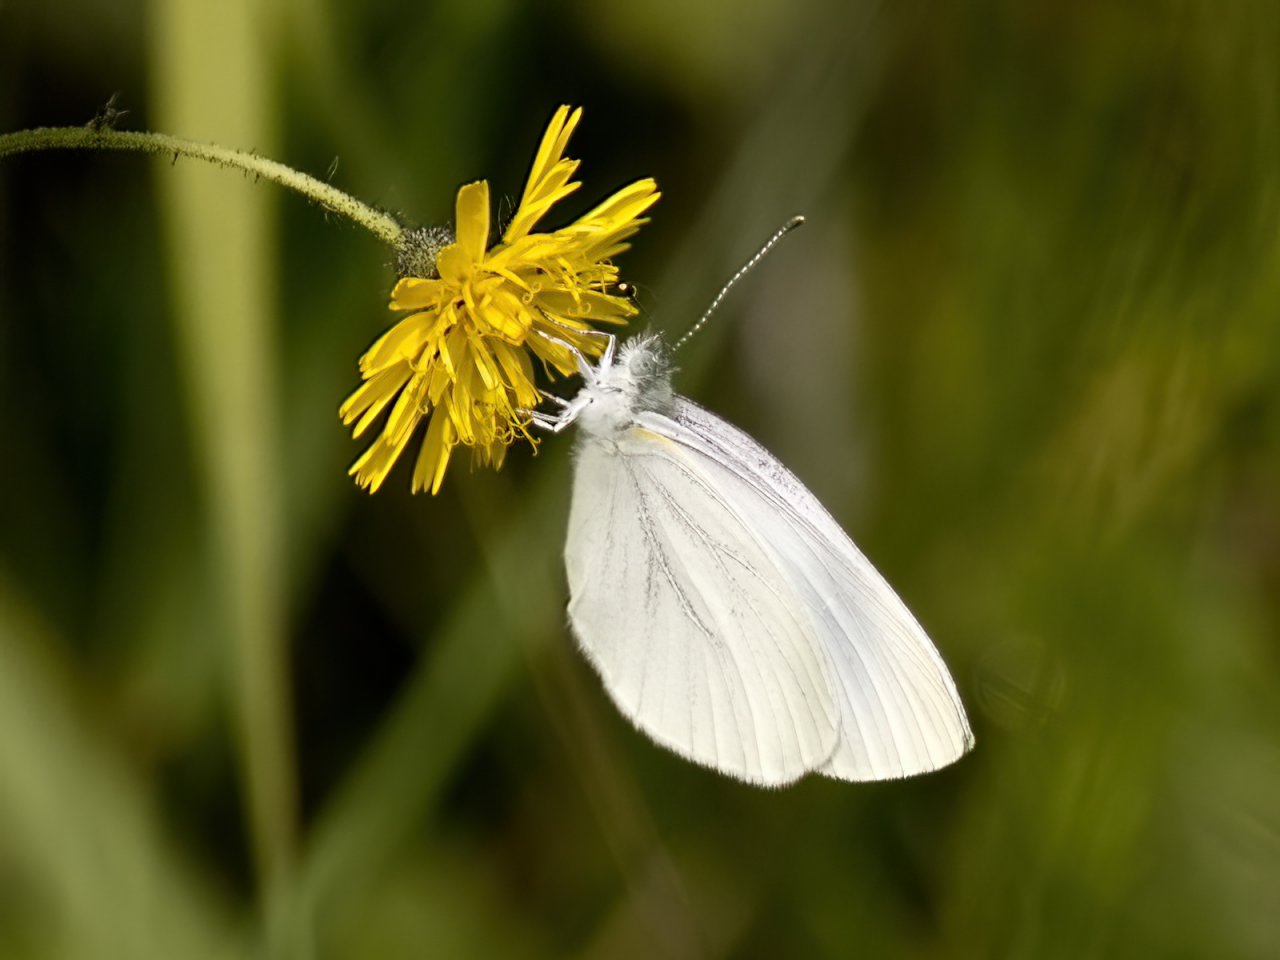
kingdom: Animalia
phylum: Arthropoda
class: Insecta
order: Lepidoptera
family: Pieridae
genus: Pieris
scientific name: Pieris oleracea
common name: Mustard White
